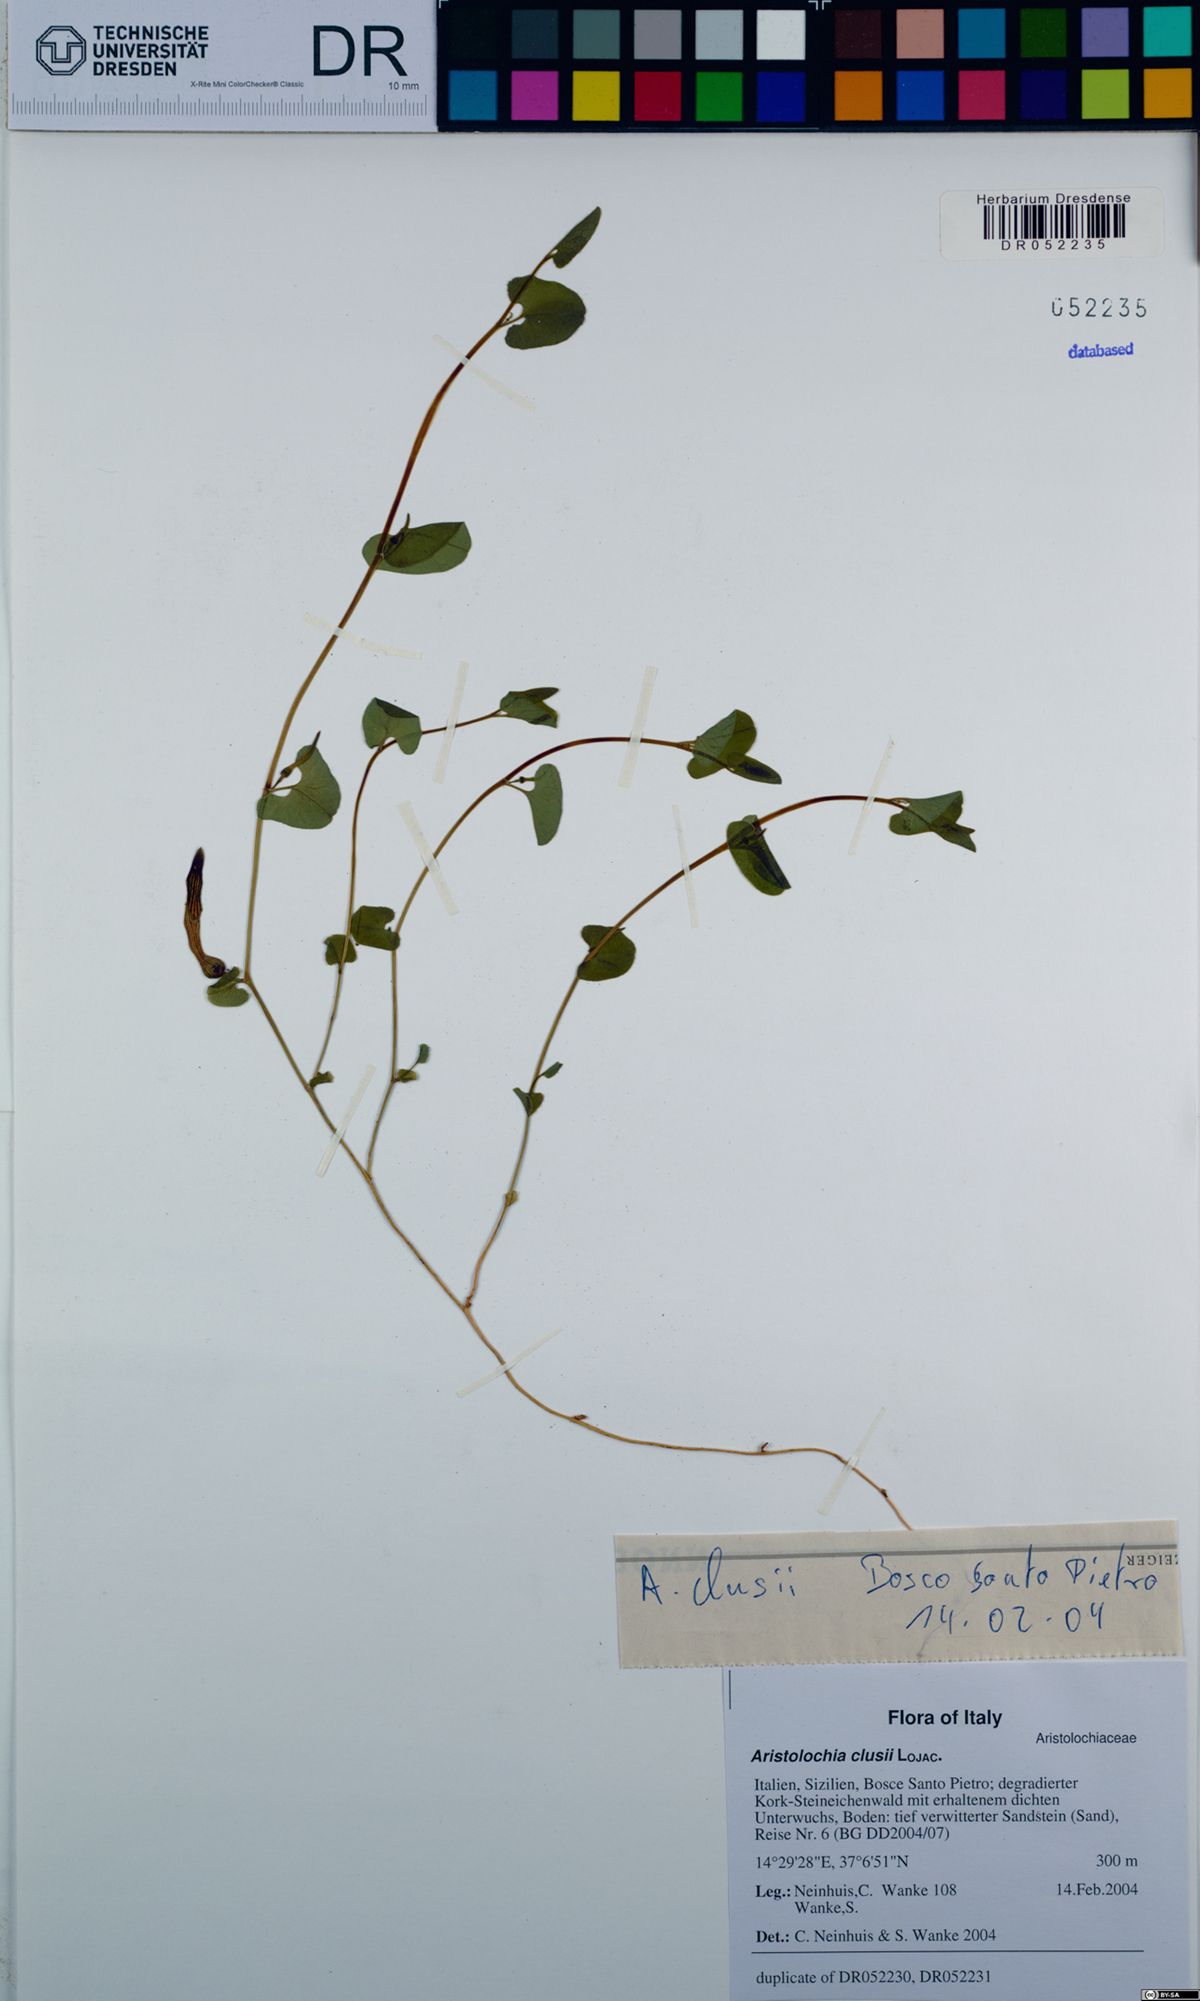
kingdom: Plantae
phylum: Tracheophyta
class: Magnoliopsida
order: Piperales
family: Aristolochiaceae
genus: Aristolochia
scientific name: Aristolochia clusii
